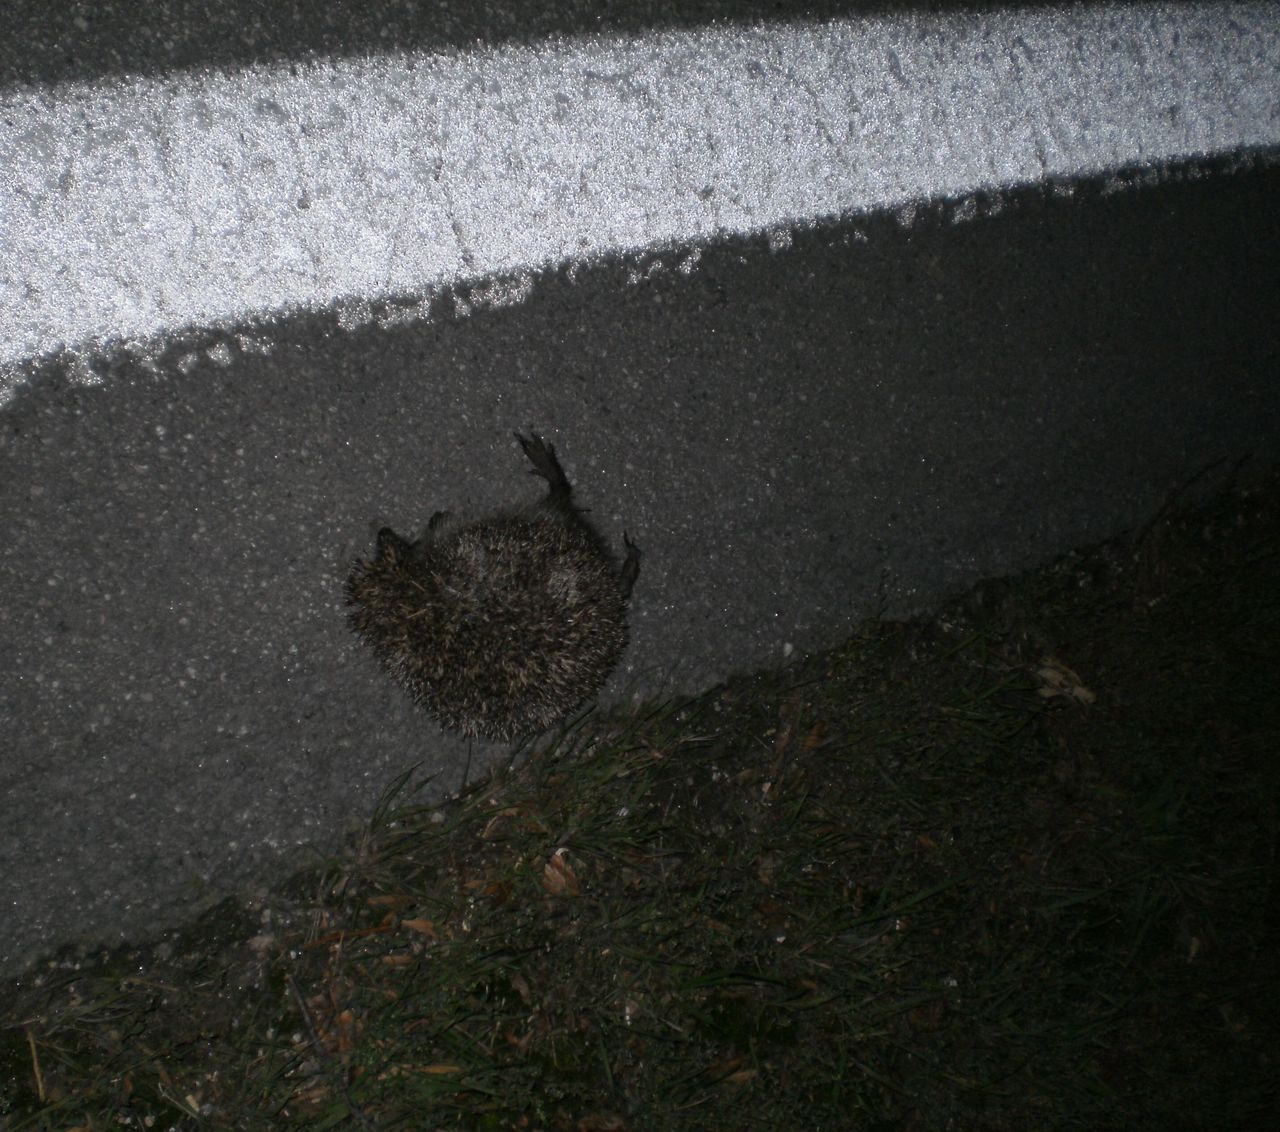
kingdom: Animalia
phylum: Chordata
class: Mammalia
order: Erinaceomorpha
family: Erinaceidae
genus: Erinaceus
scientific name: Erinaceus
